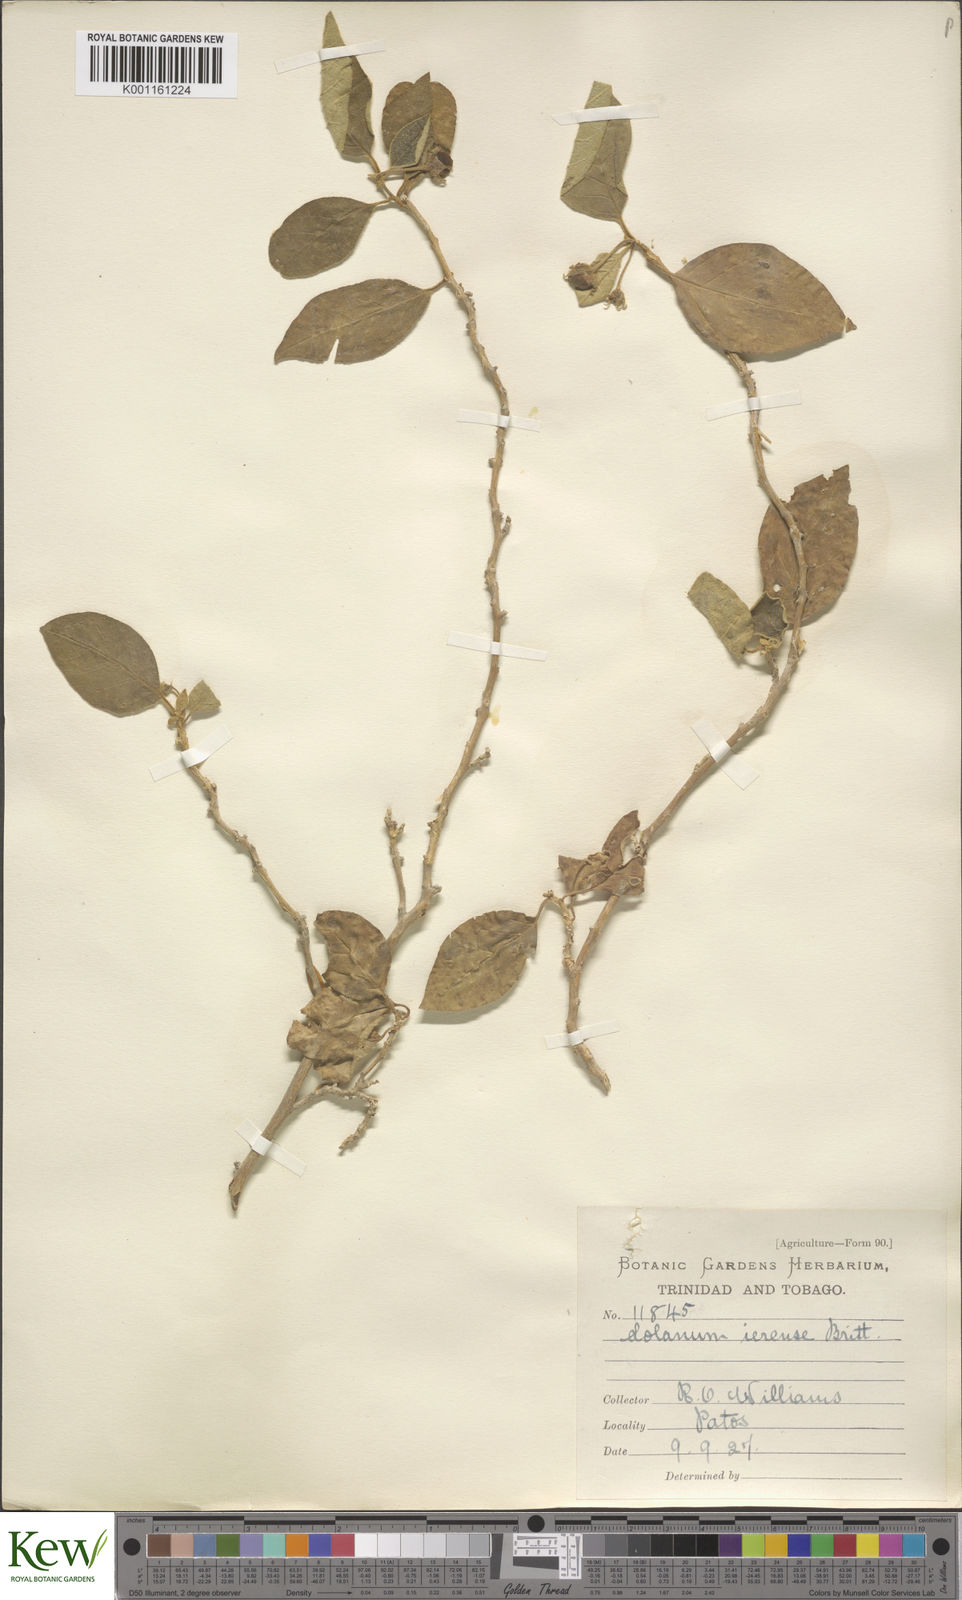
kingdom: Plantae
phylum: Tracheophyta
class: Magnoliopsida
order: Solanales
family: Solanaceae
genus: Solanum
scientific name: Solanum gardneri
